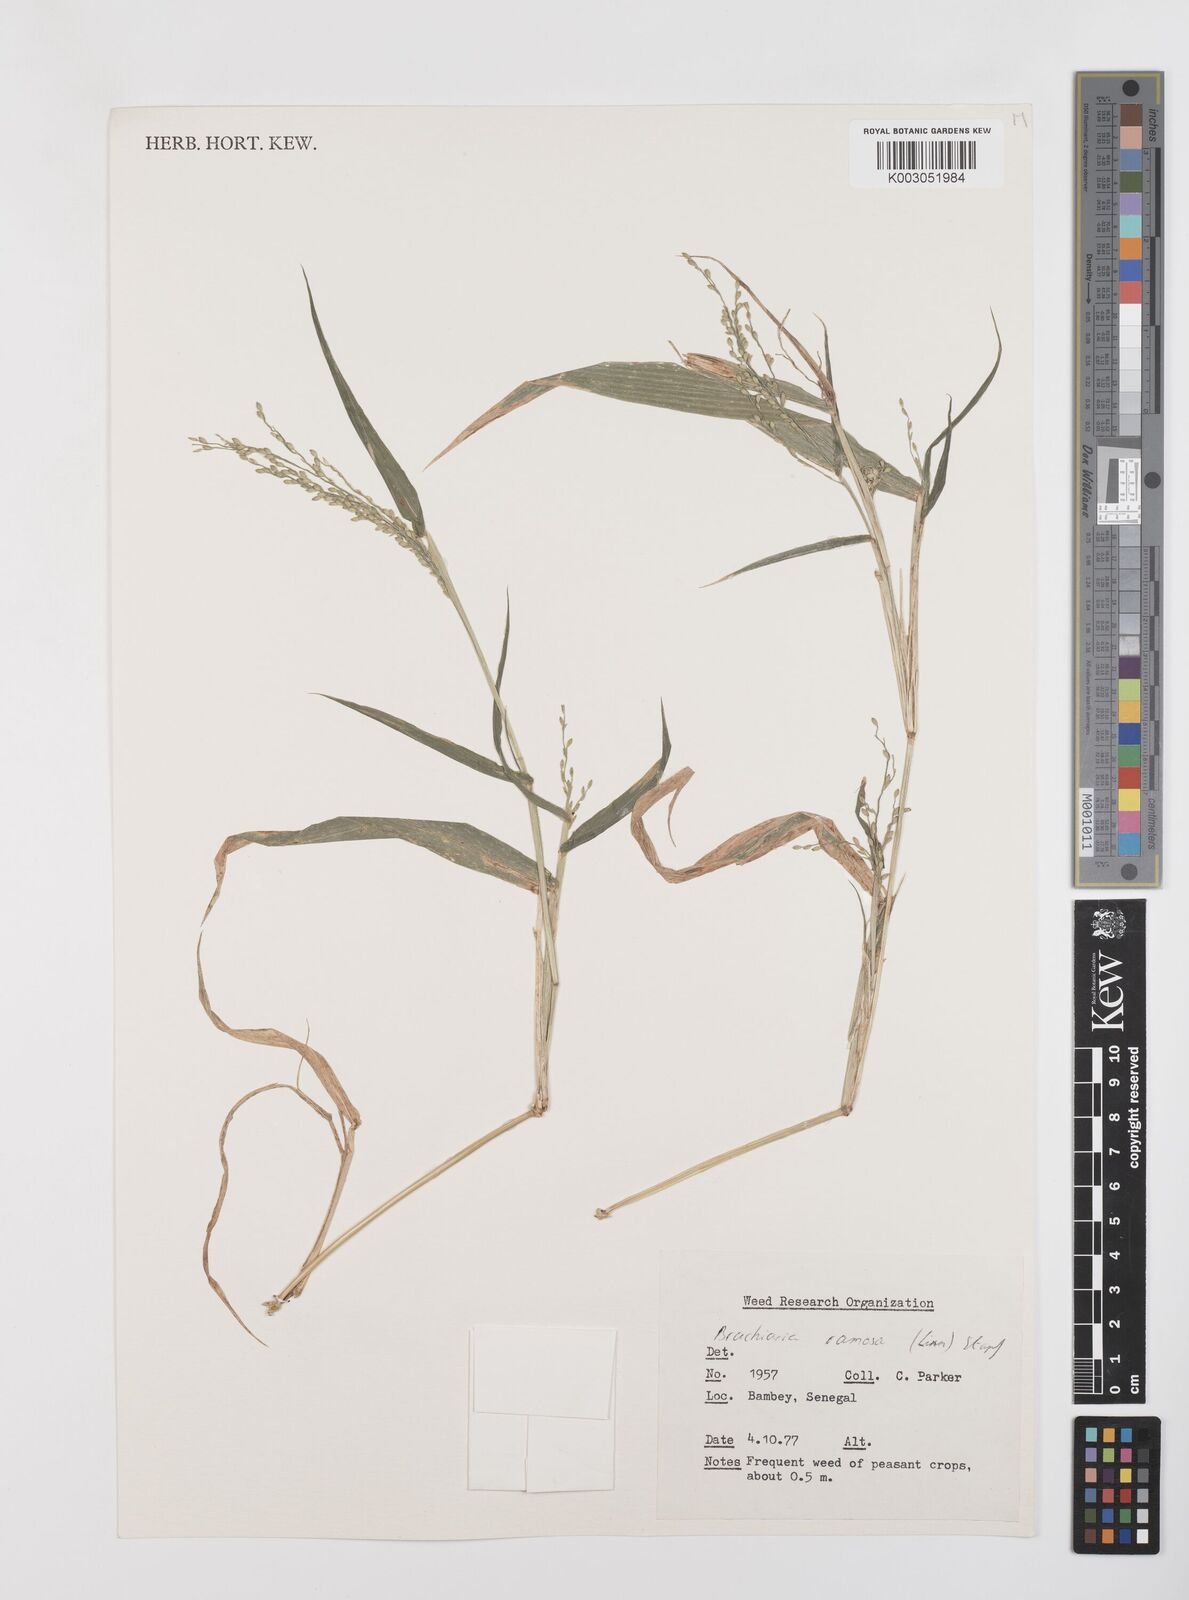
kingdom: Plantae
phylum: Tracheophyta
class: Liliopsida
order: Poales
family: Poaceae
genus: Urochloa
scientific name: Urochloa ramosa
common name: Browntop millet
